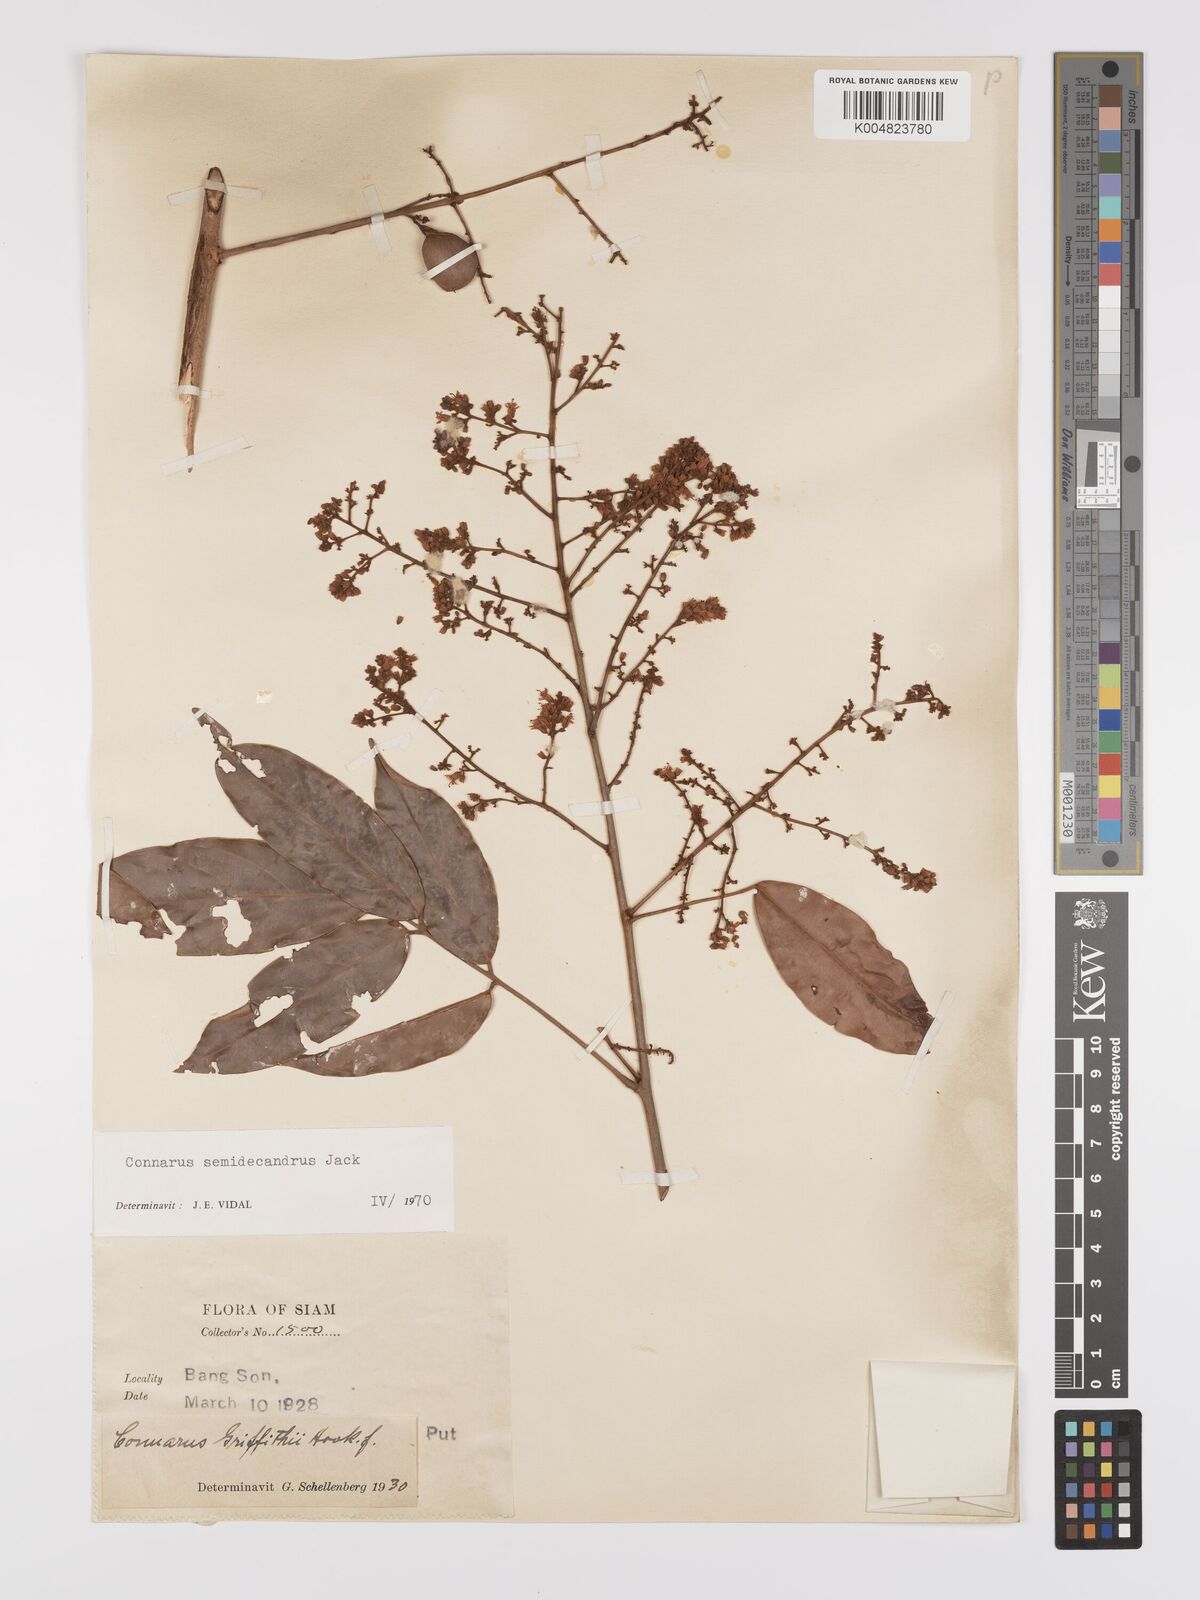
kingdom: Plantae
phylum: Tracheophyta
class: Magnoliopsida
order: Oxalidales
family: Connaraceae
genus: Connarus
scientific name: Connarus semidecandrus
